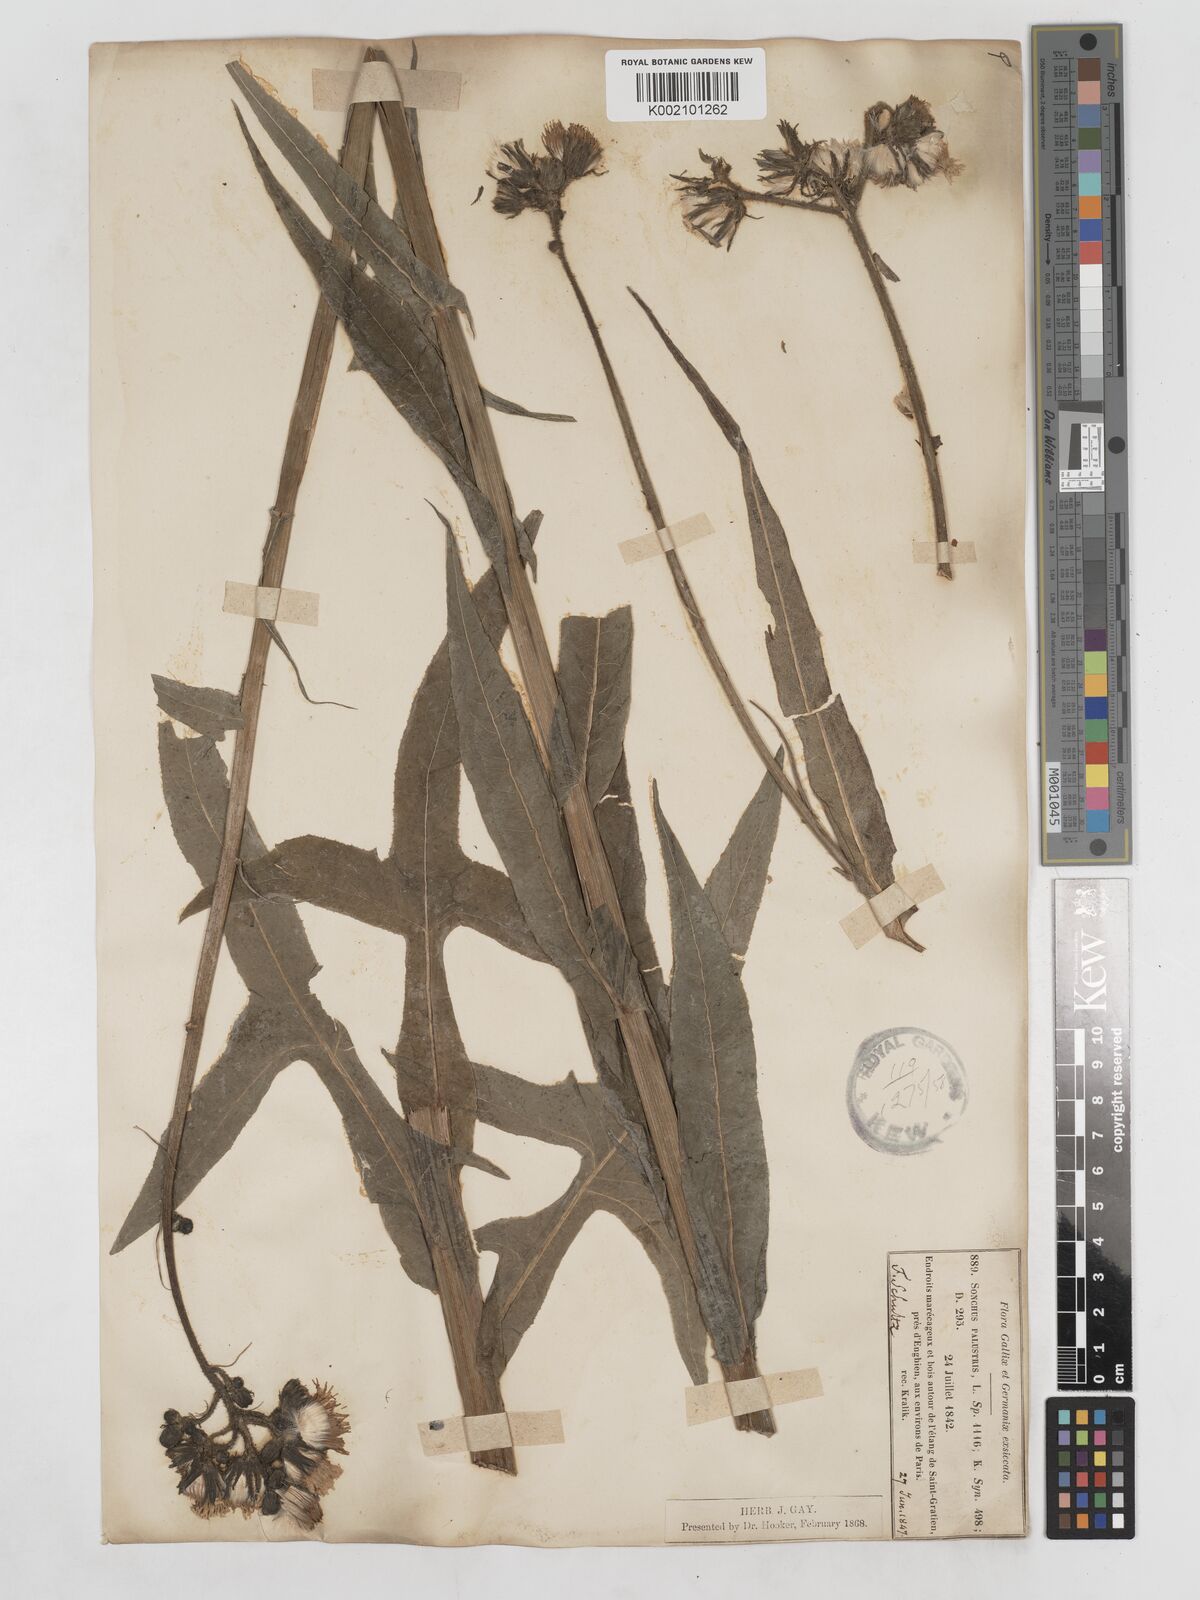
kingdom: Plantae
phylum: Tracheophyta
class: Magnoliopsida
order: Asterales
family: Asteraceae
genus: Sonchus
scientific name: Sonchus palustris
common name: Marsh sow-thistle
